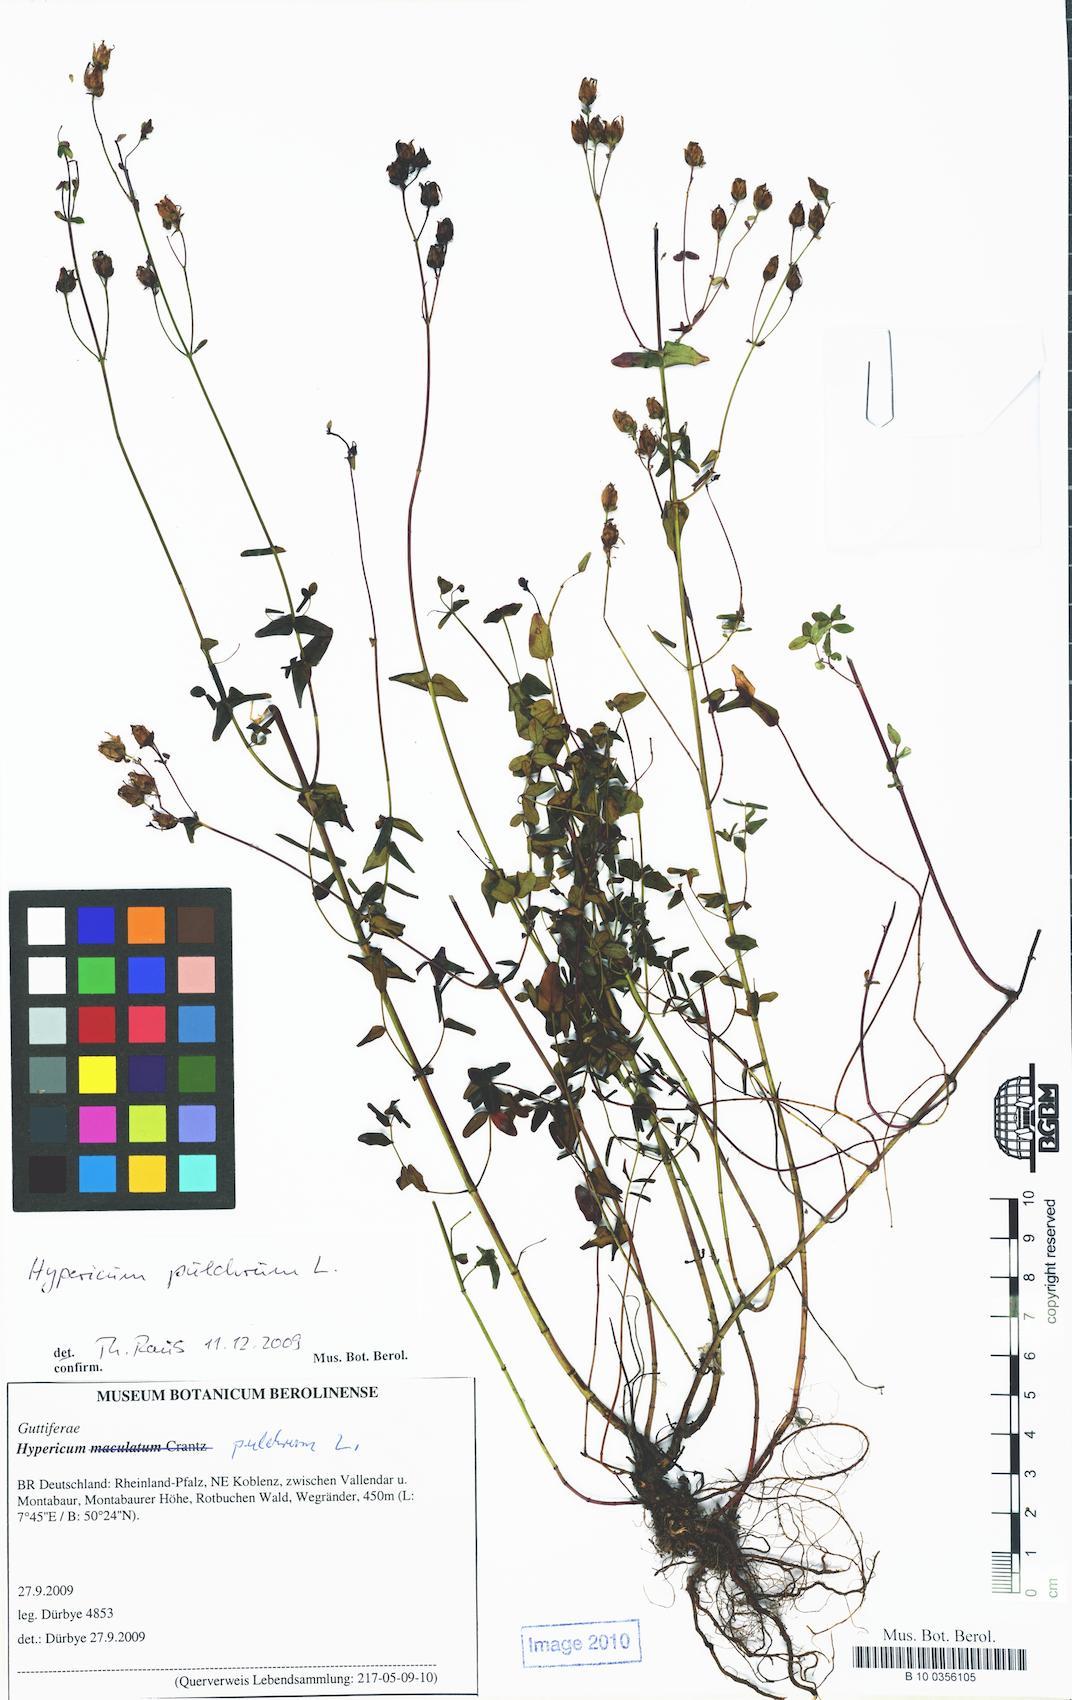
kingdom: Plantae
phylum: Tracheophyta
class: Magnoliopsida
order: Malpighiales
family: Hypericaceae
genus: Hypericum
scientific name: Hypericum pulchrum
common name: Slender st. john's-wort
